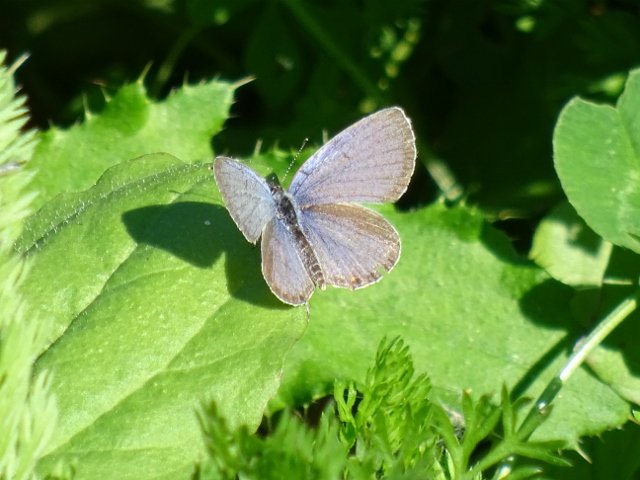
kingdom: Animalia
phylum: Arthropoda
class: Insecta
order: Lepidoptera
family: Lycaenidae
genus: Elkalyce
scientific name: Elkalyce comyntas
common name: Eastern Tailed-Blue
